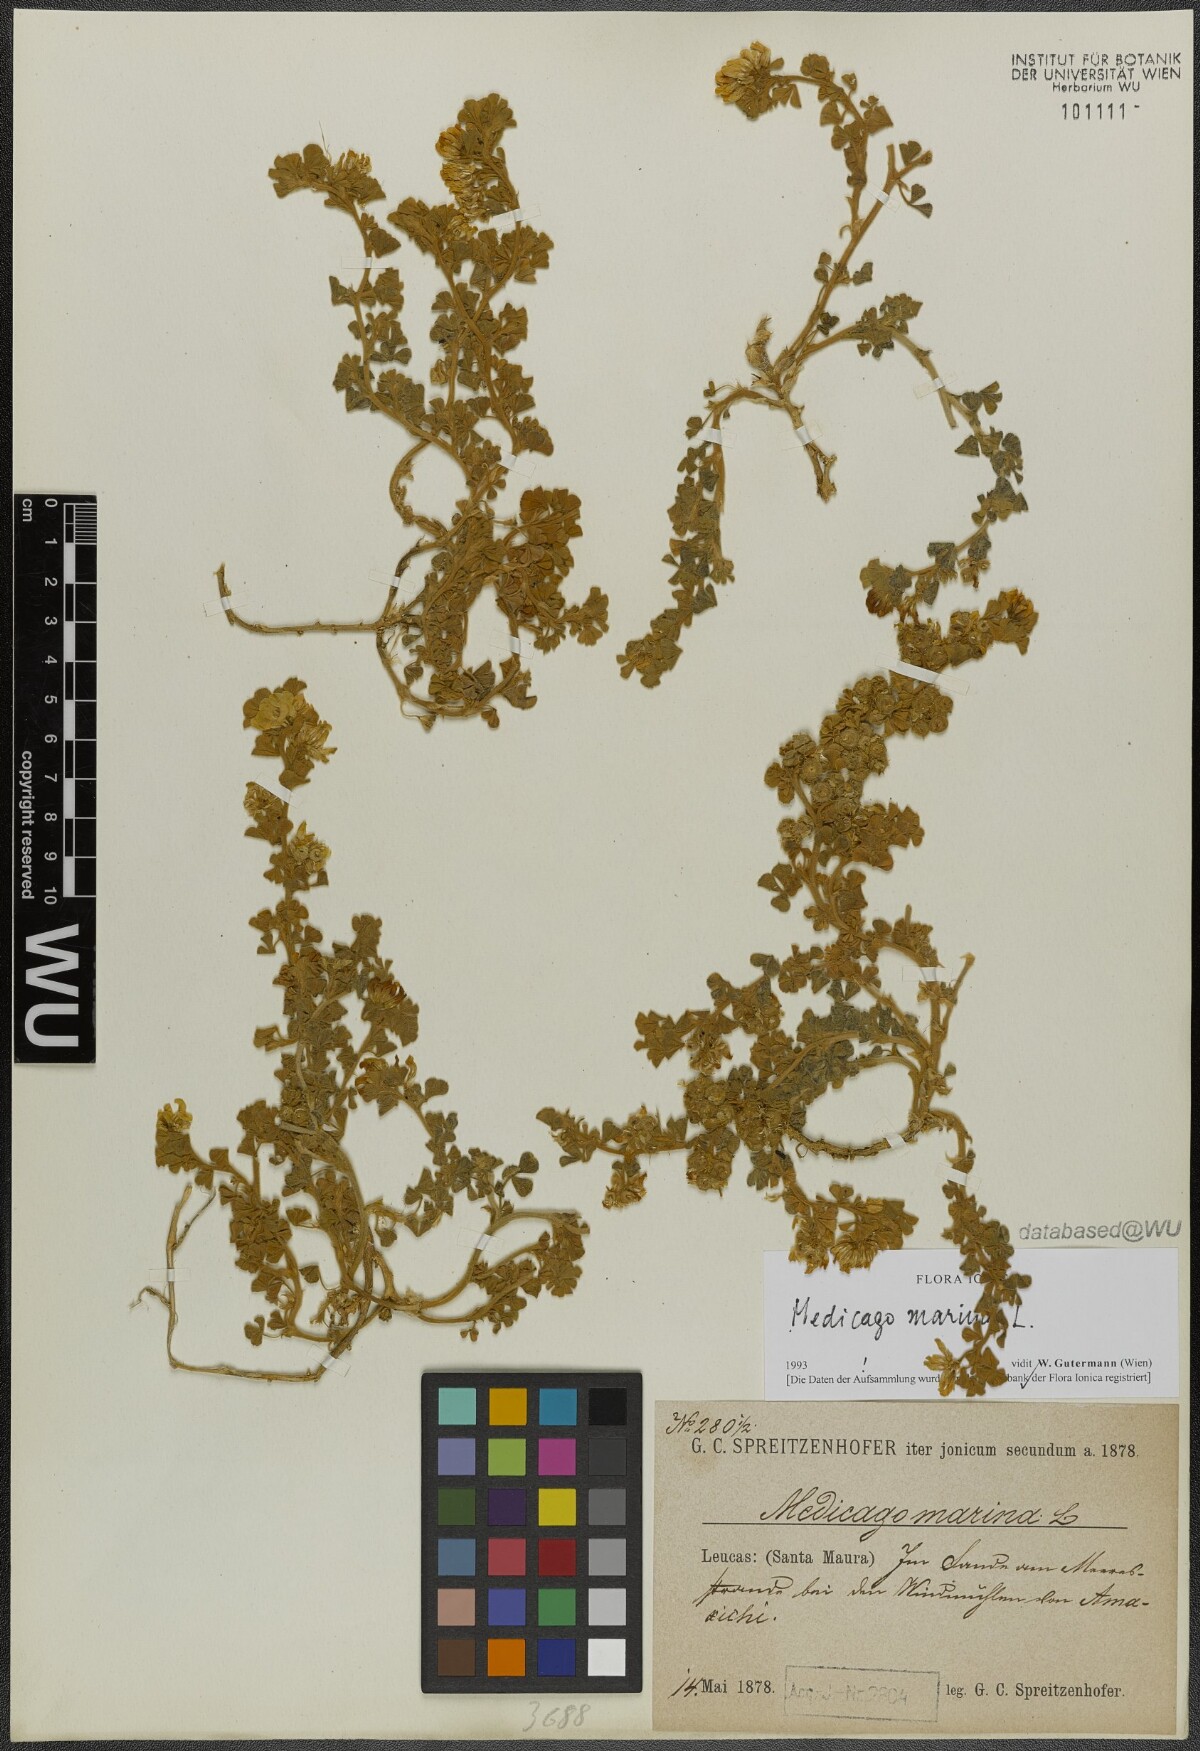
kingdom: Plantae
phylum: Tracheophyta
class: Magnoliopsida
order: Fabales
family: Fabaceae
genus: Medicago
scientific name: Medicago marina
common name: Sea medick
